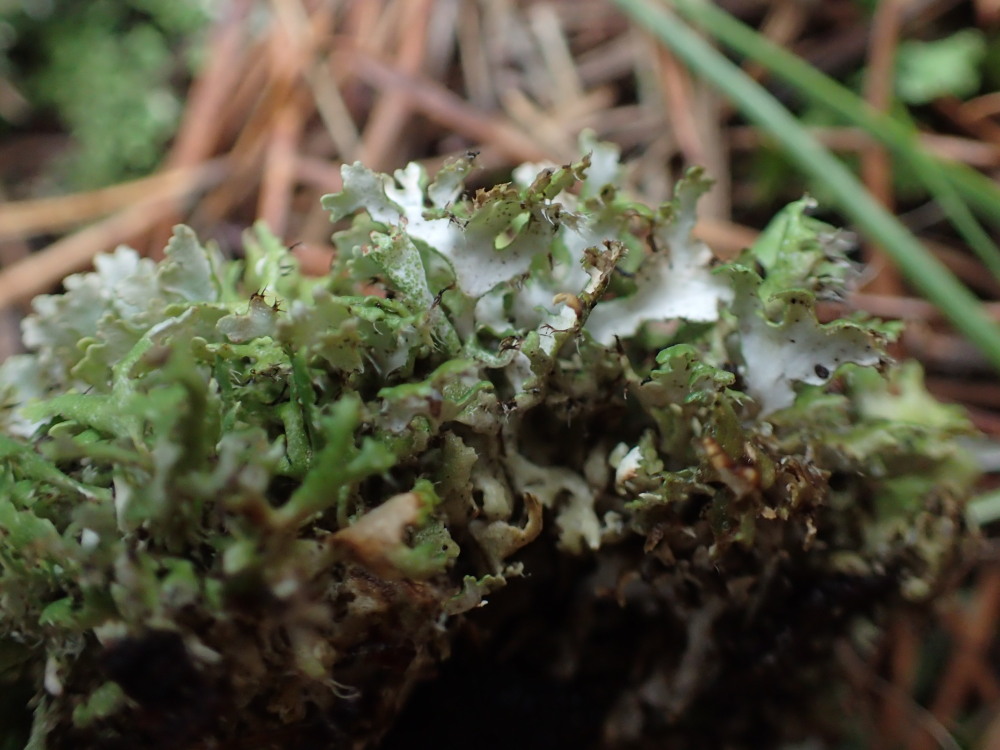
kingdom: Fungi
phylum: Ascomycota
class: Lecanoromycetes
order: Lecanorales
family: Cladoniaceae
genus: Cladonia
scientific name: Cladonia foliacea
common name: fliget bægerlav
